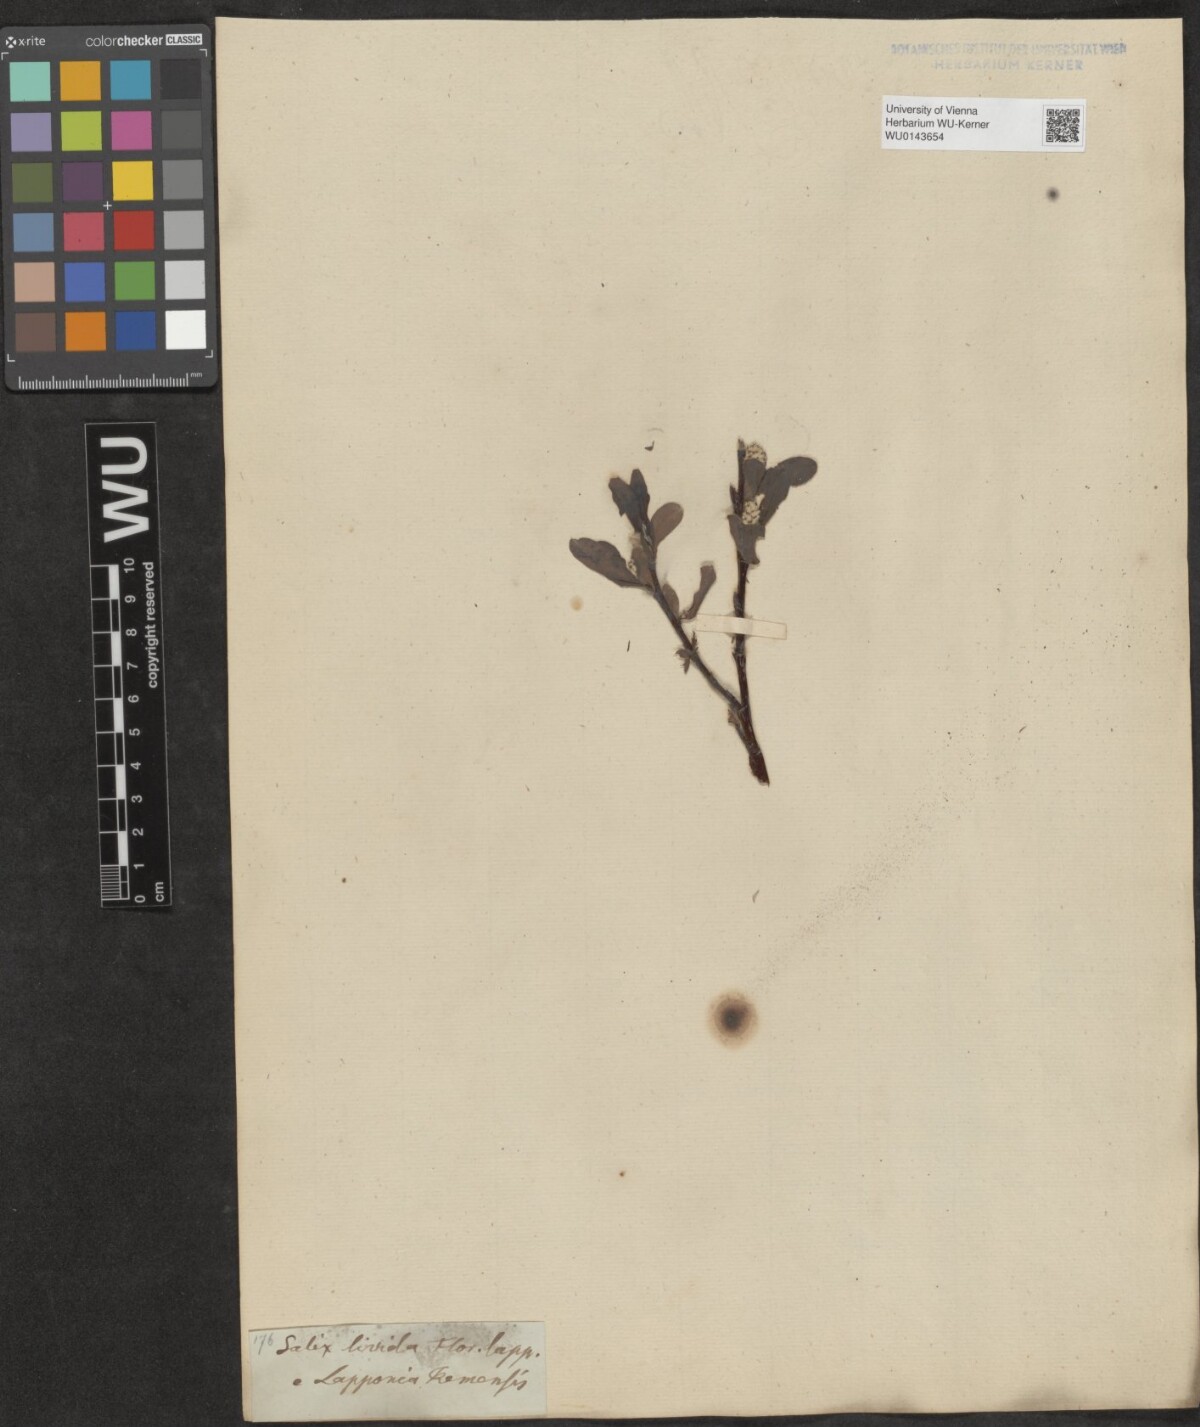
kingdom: Plantae
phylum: Tracheophyta
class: Magnoliopsida
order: Malpighiales
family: Salicaceae
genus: Salix
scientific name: Salix
